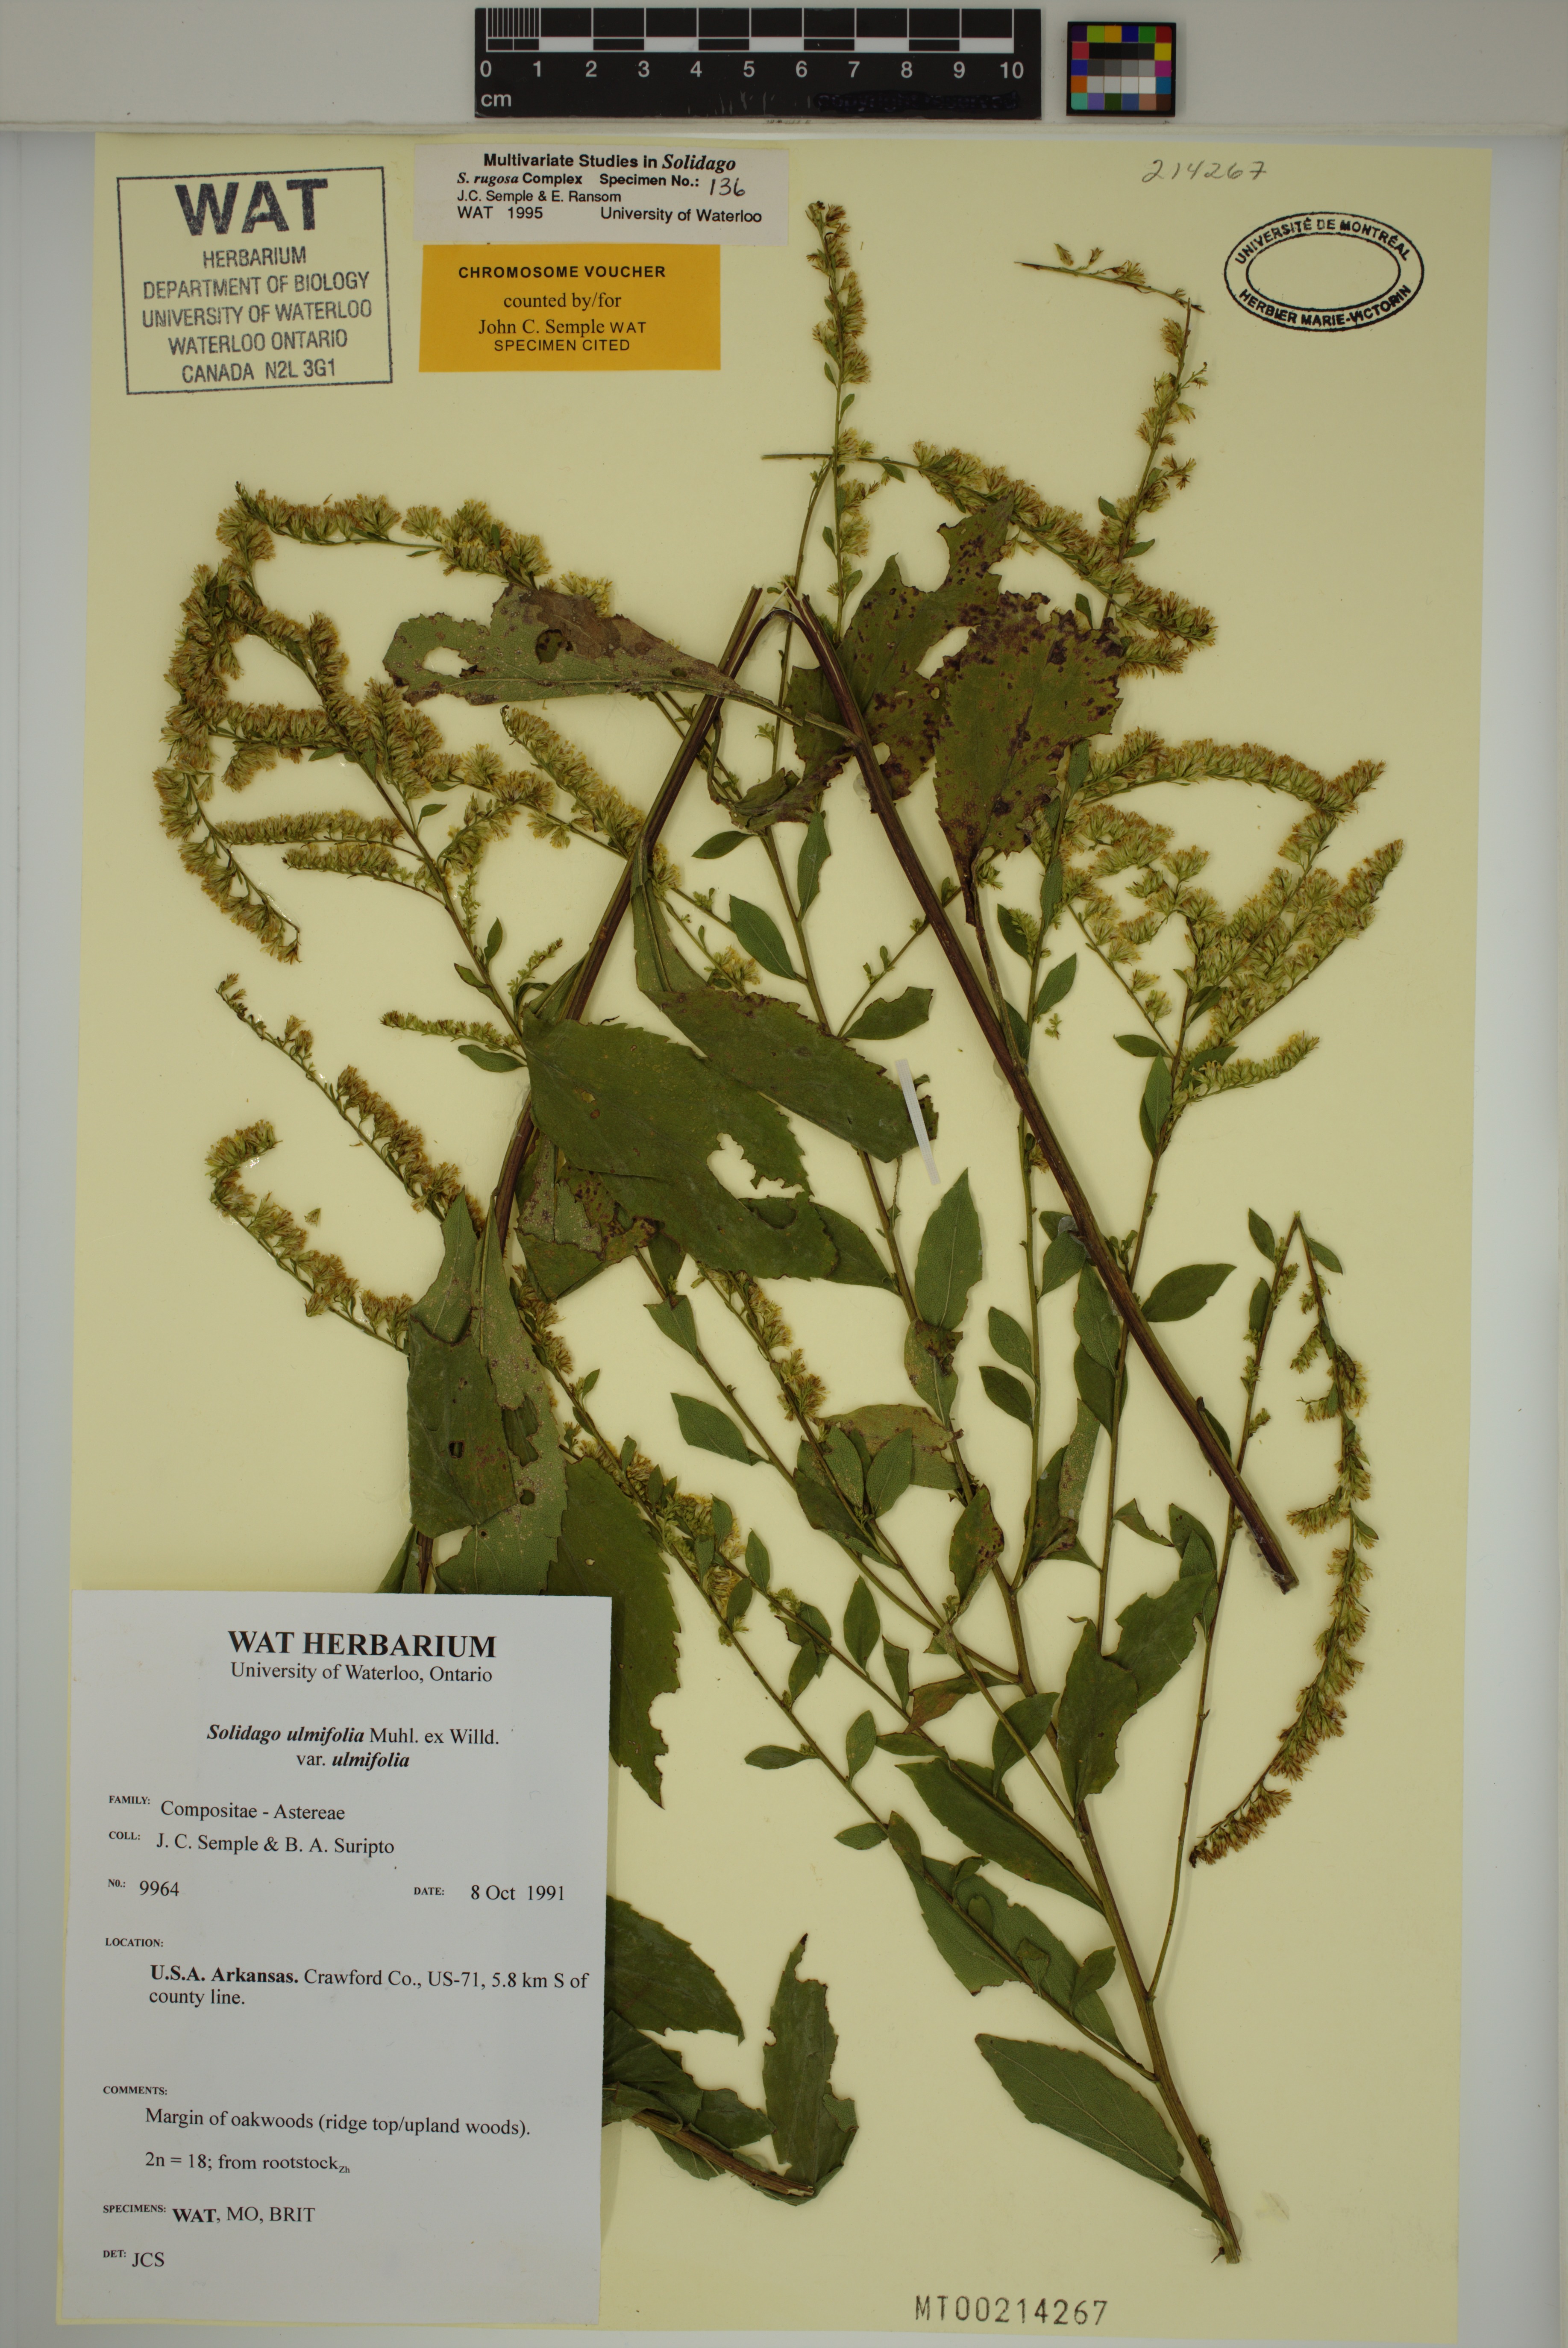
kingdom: Plantae
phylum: Tracheophyta
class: Magnoliopsida
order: Asterales
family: Asteraceae
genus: Solidago
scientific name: Solidago ulmifolia
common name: Elm-leaf goldenrod
